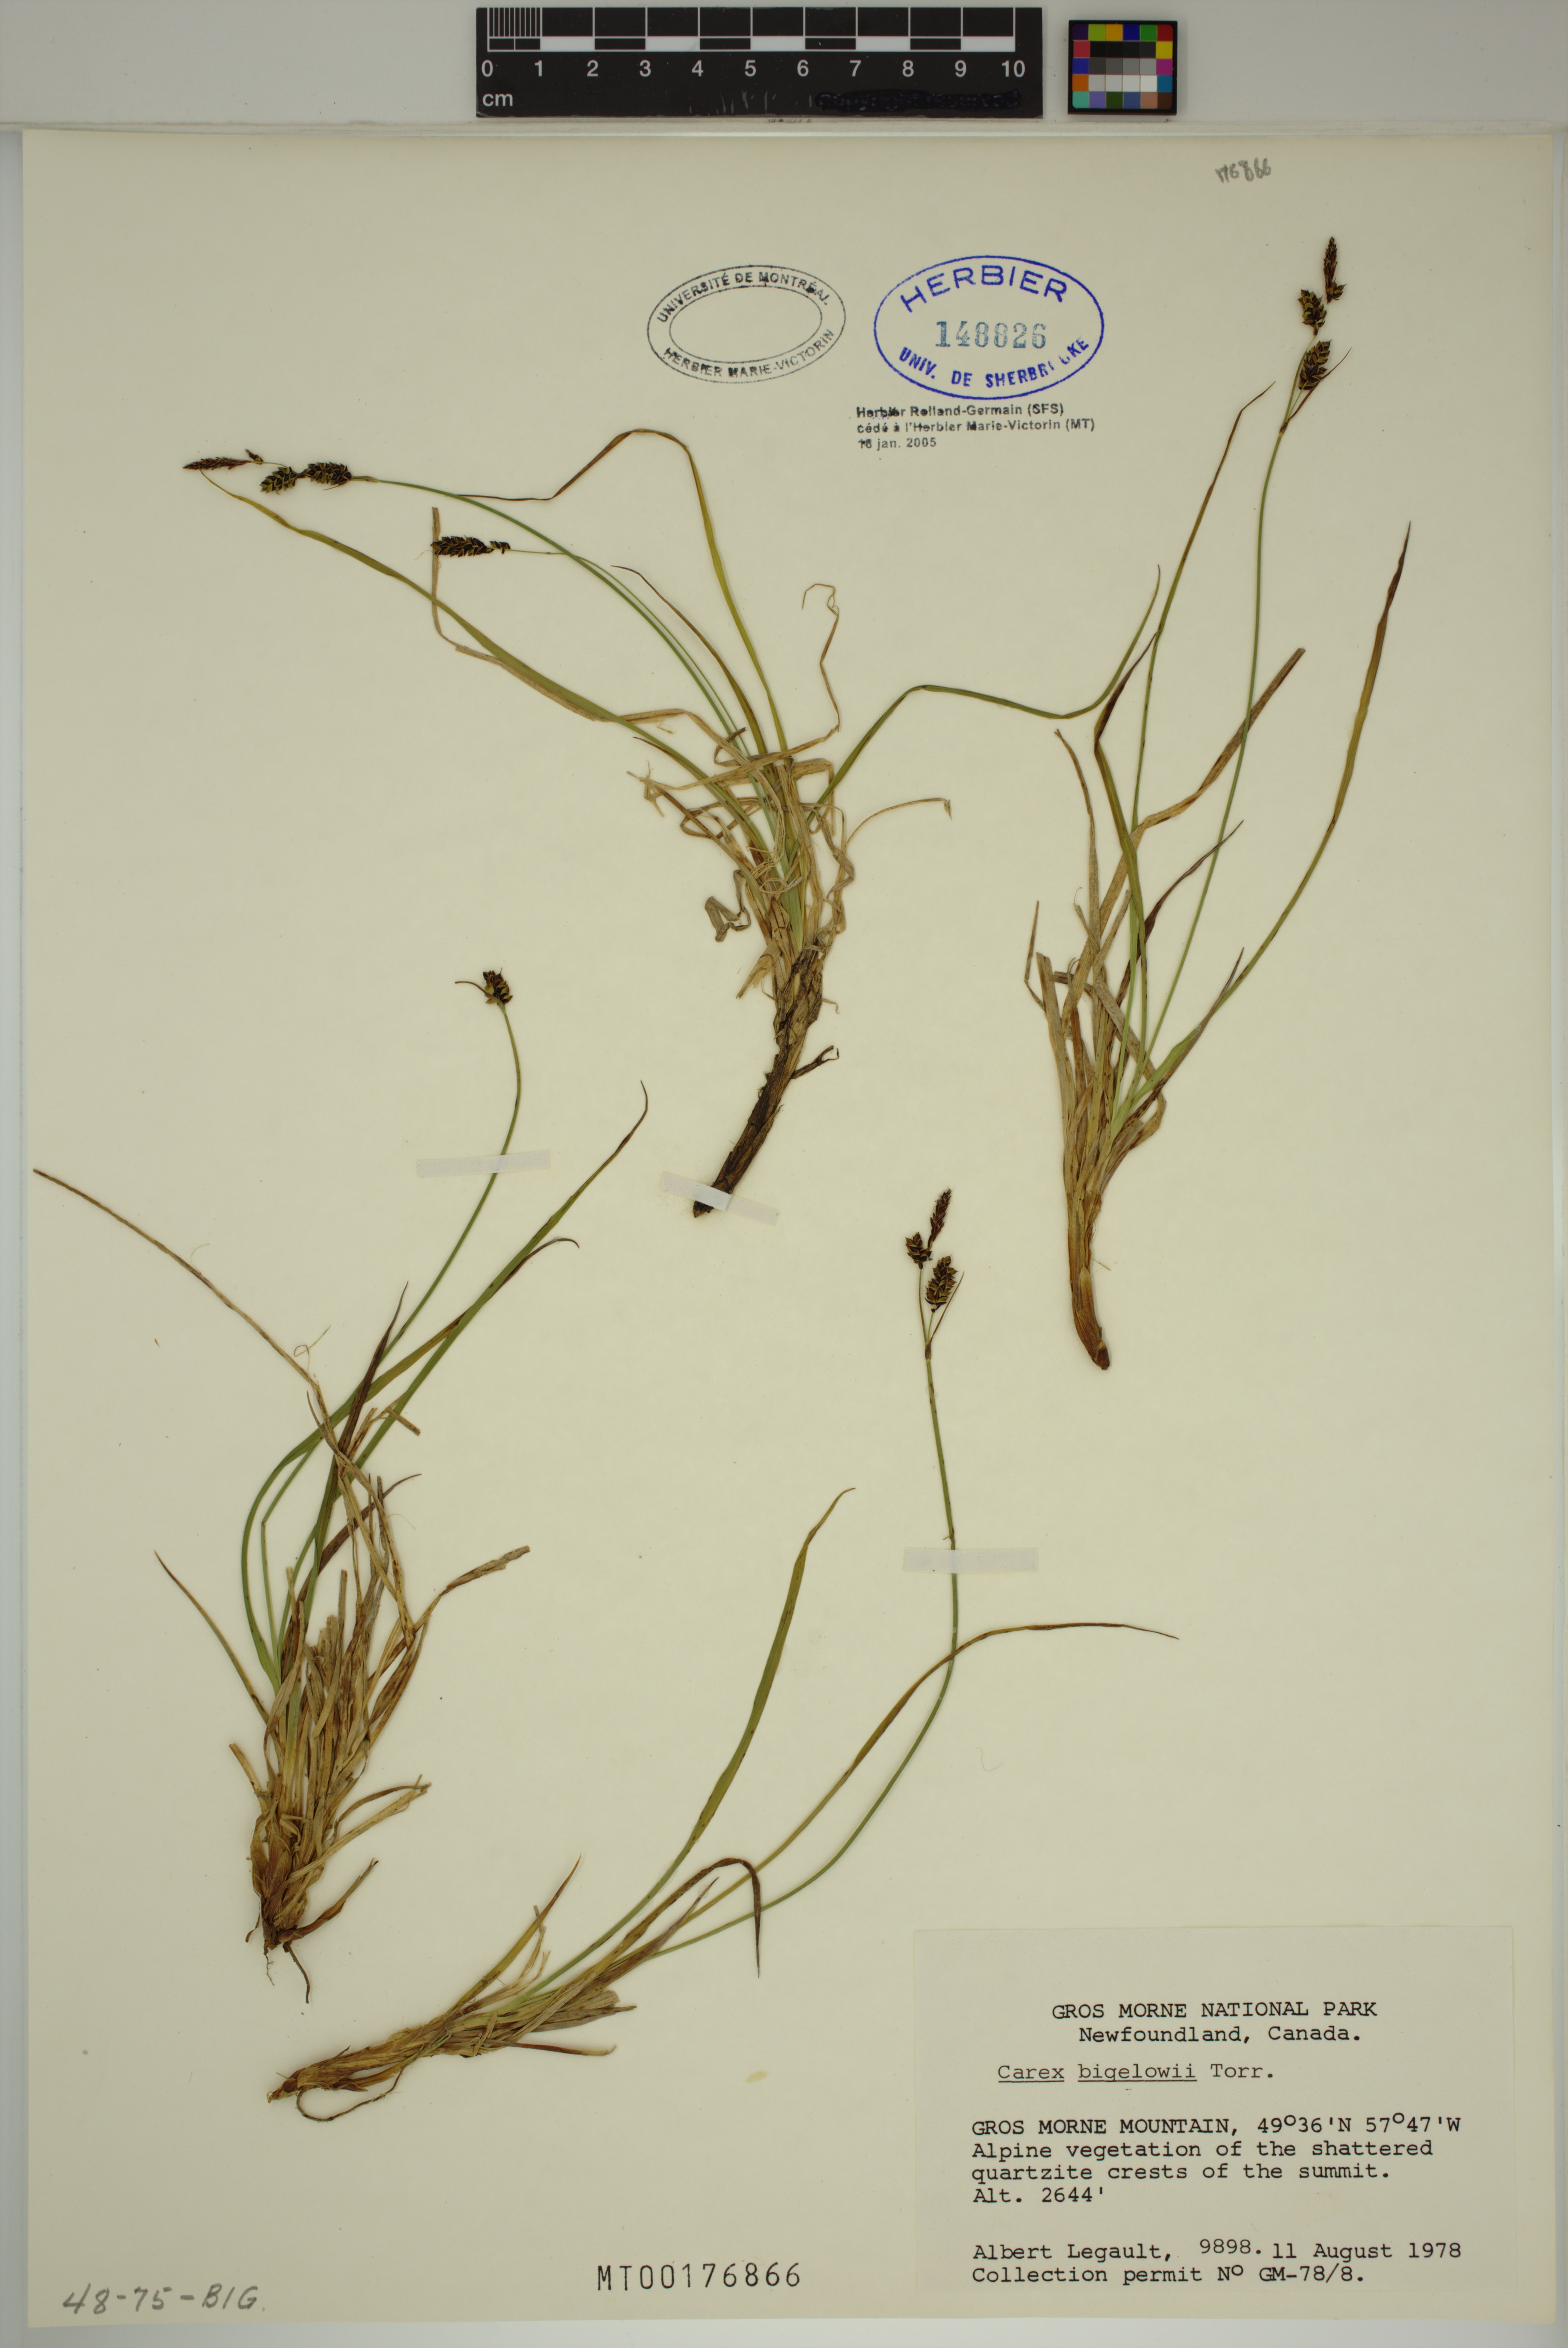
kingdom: Plantae
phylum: Tracheophyta
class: Liliopsida
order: Poales
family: Cyperaceae
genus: Carex
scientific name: Carex bigelowii
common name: Stiff sedge
